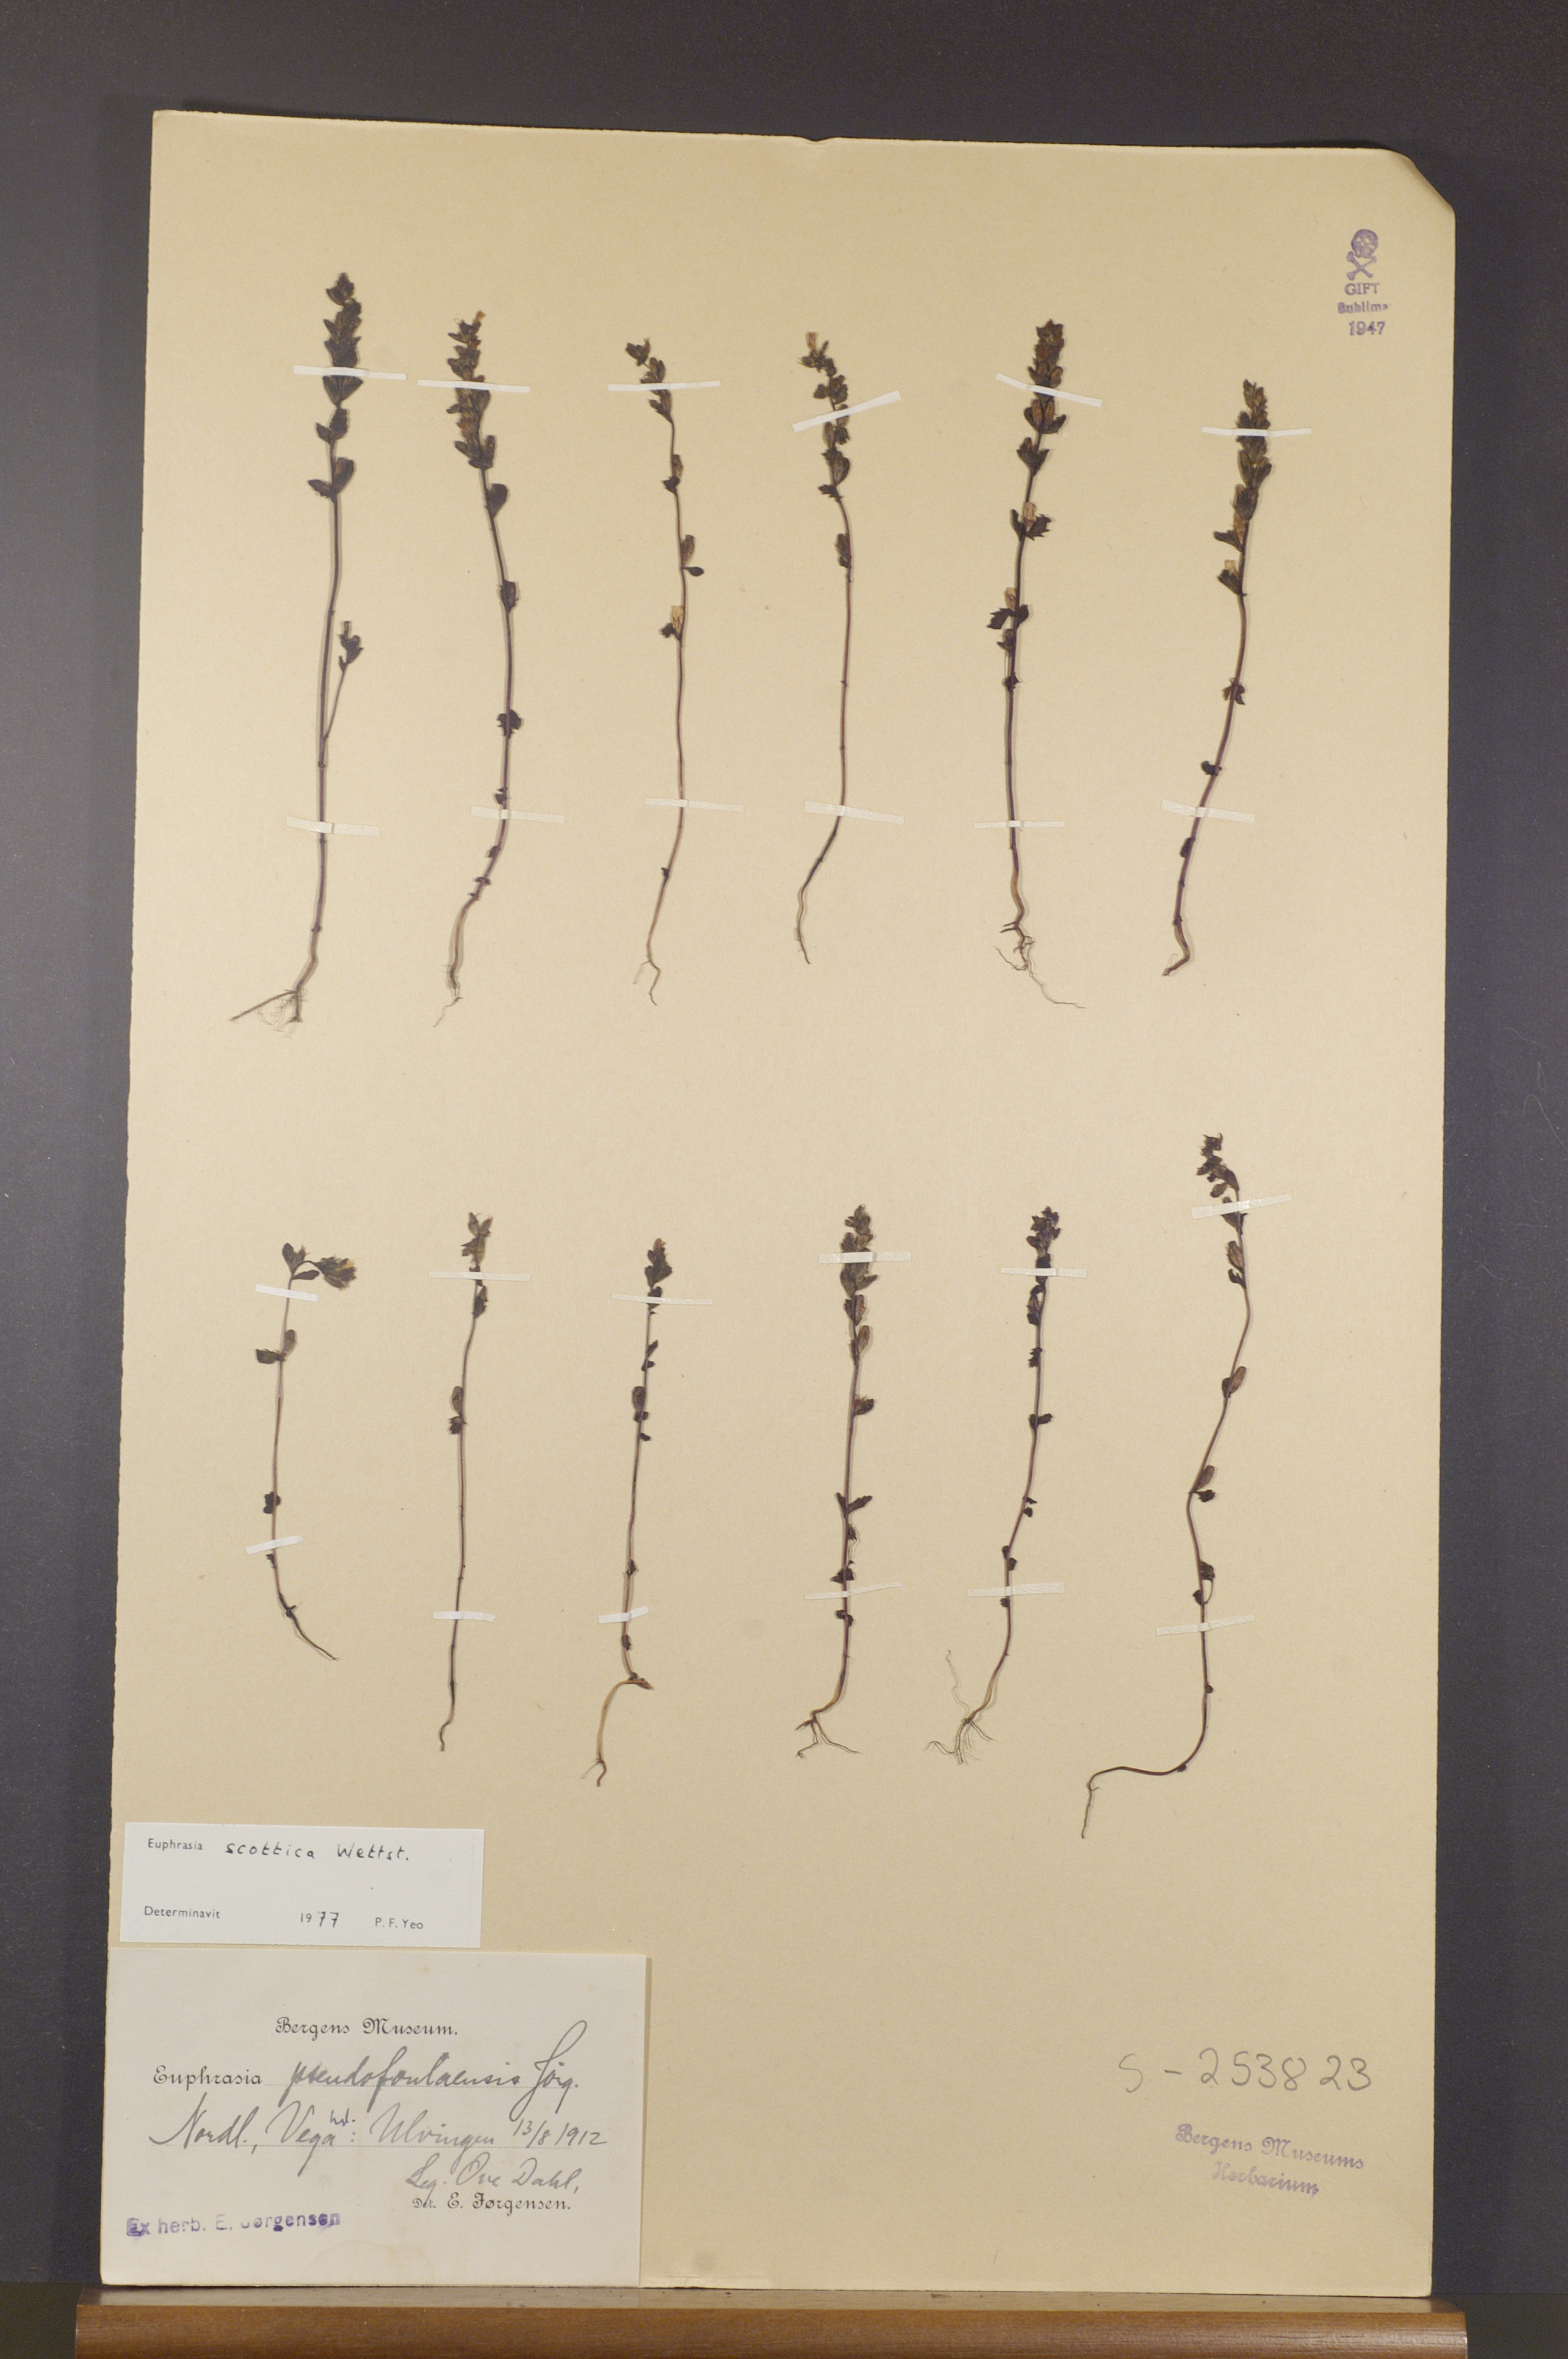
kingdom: Plantae
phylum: Tracheophyta
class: Magnoliopsida
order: Lamiales
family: Orobanchaceae
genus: Euphrasia
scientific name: Euphrasia scottica
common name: Slender scottish eyebright
